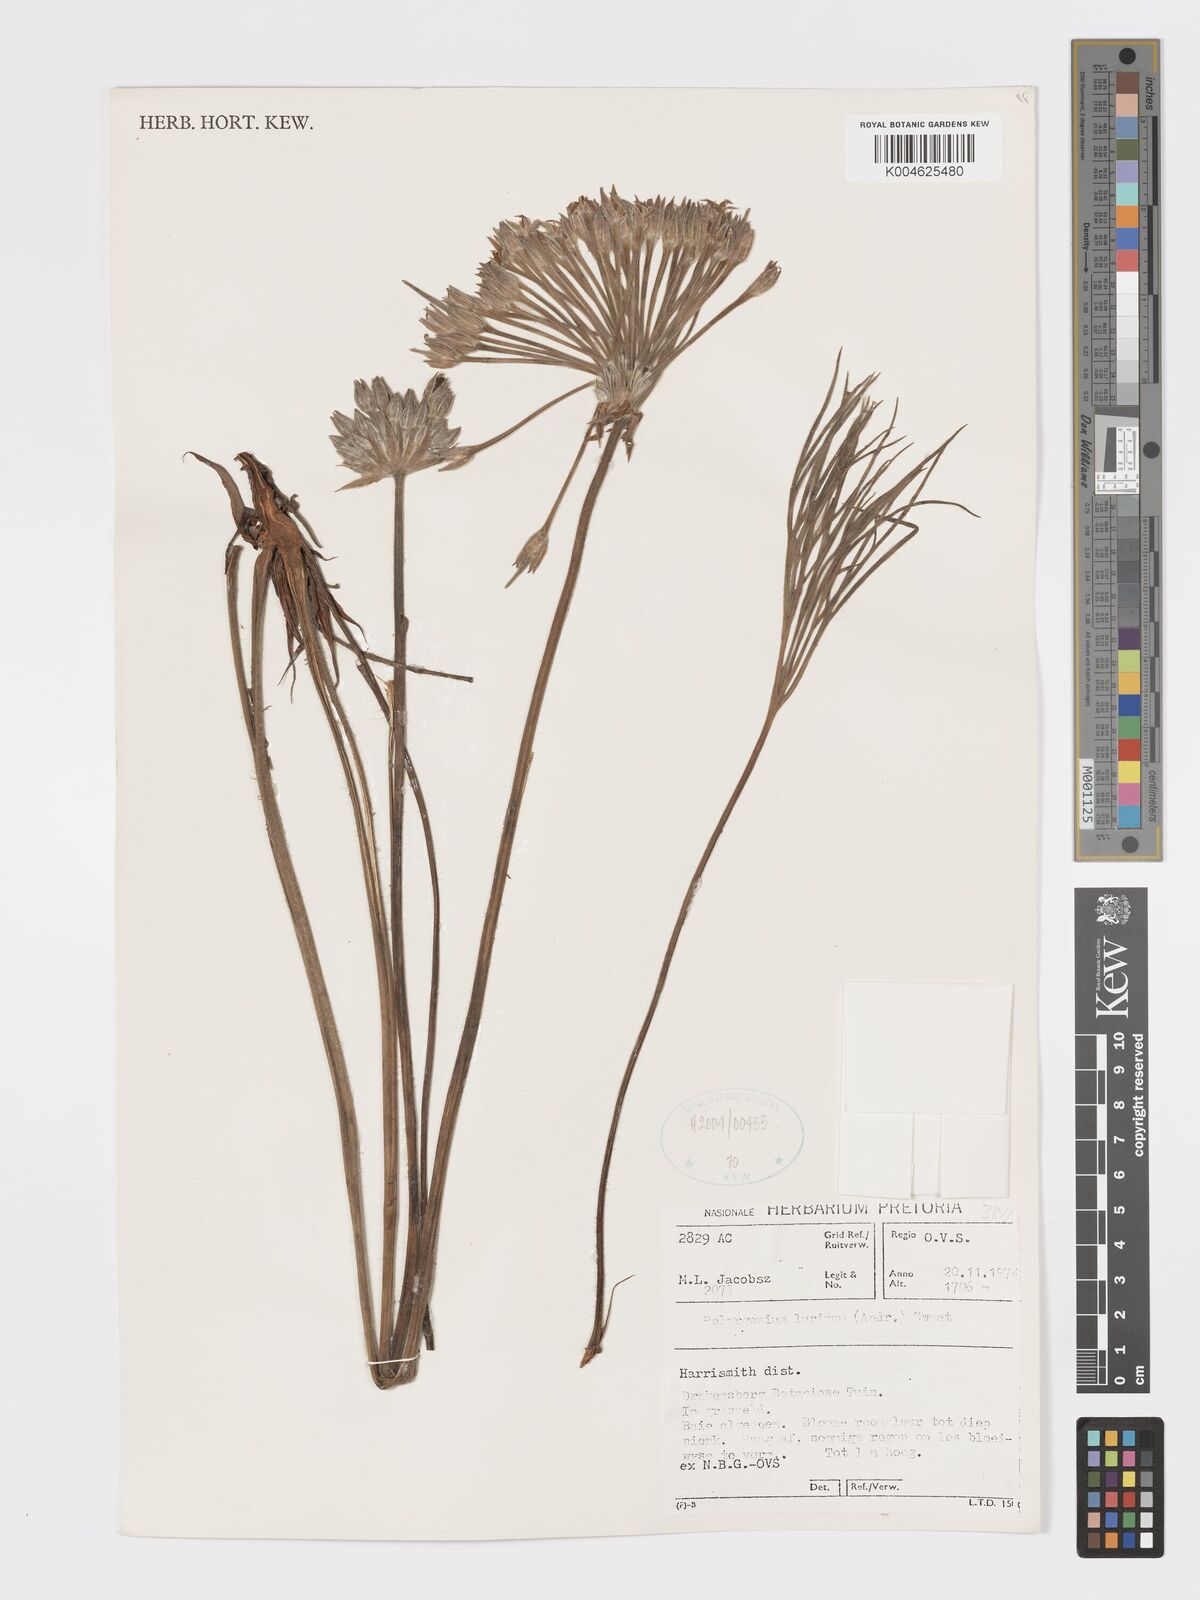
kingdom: Plantae
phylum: Tracheophyta
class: Magnoliopsida
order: Geraniales
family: Geraniaceae
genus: Pelargonium
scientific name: Pelargonium luridum
